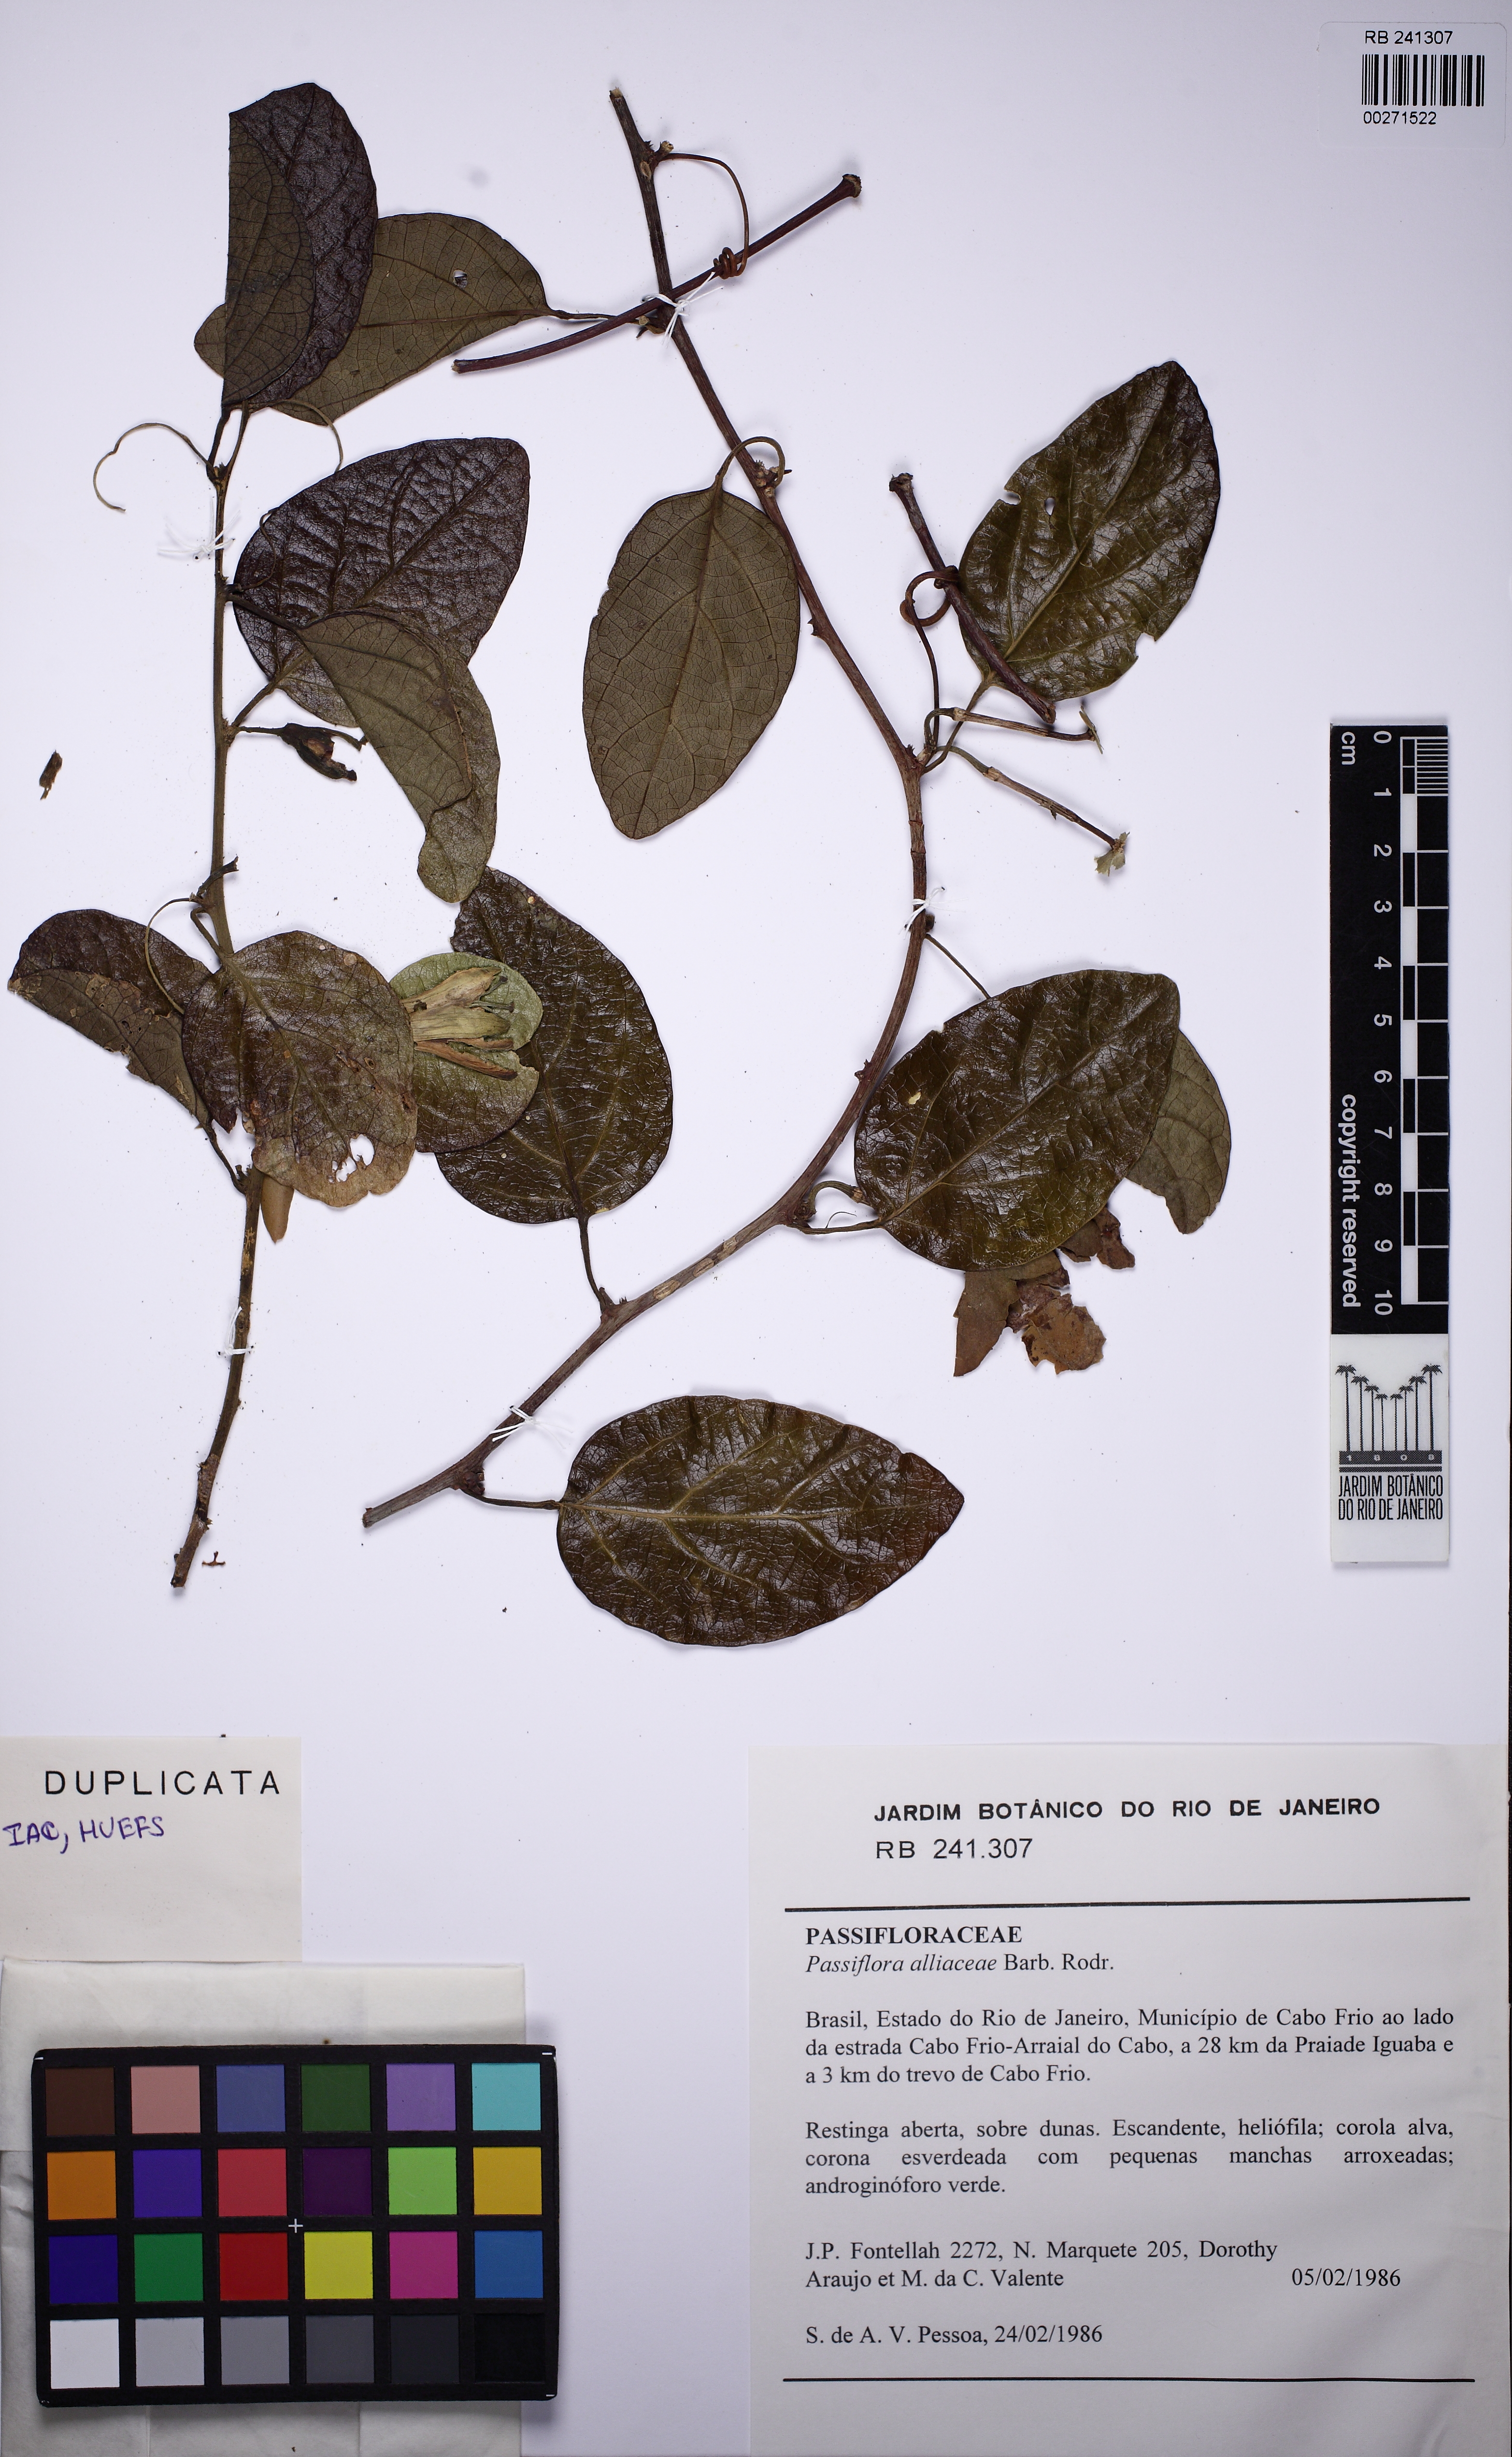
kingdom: Plantae
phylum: Tracheophyta
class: Magnoliopsida
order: Malpighiales
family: Passifloraceae
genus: Passiflora
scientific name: Passiflora pentagona
